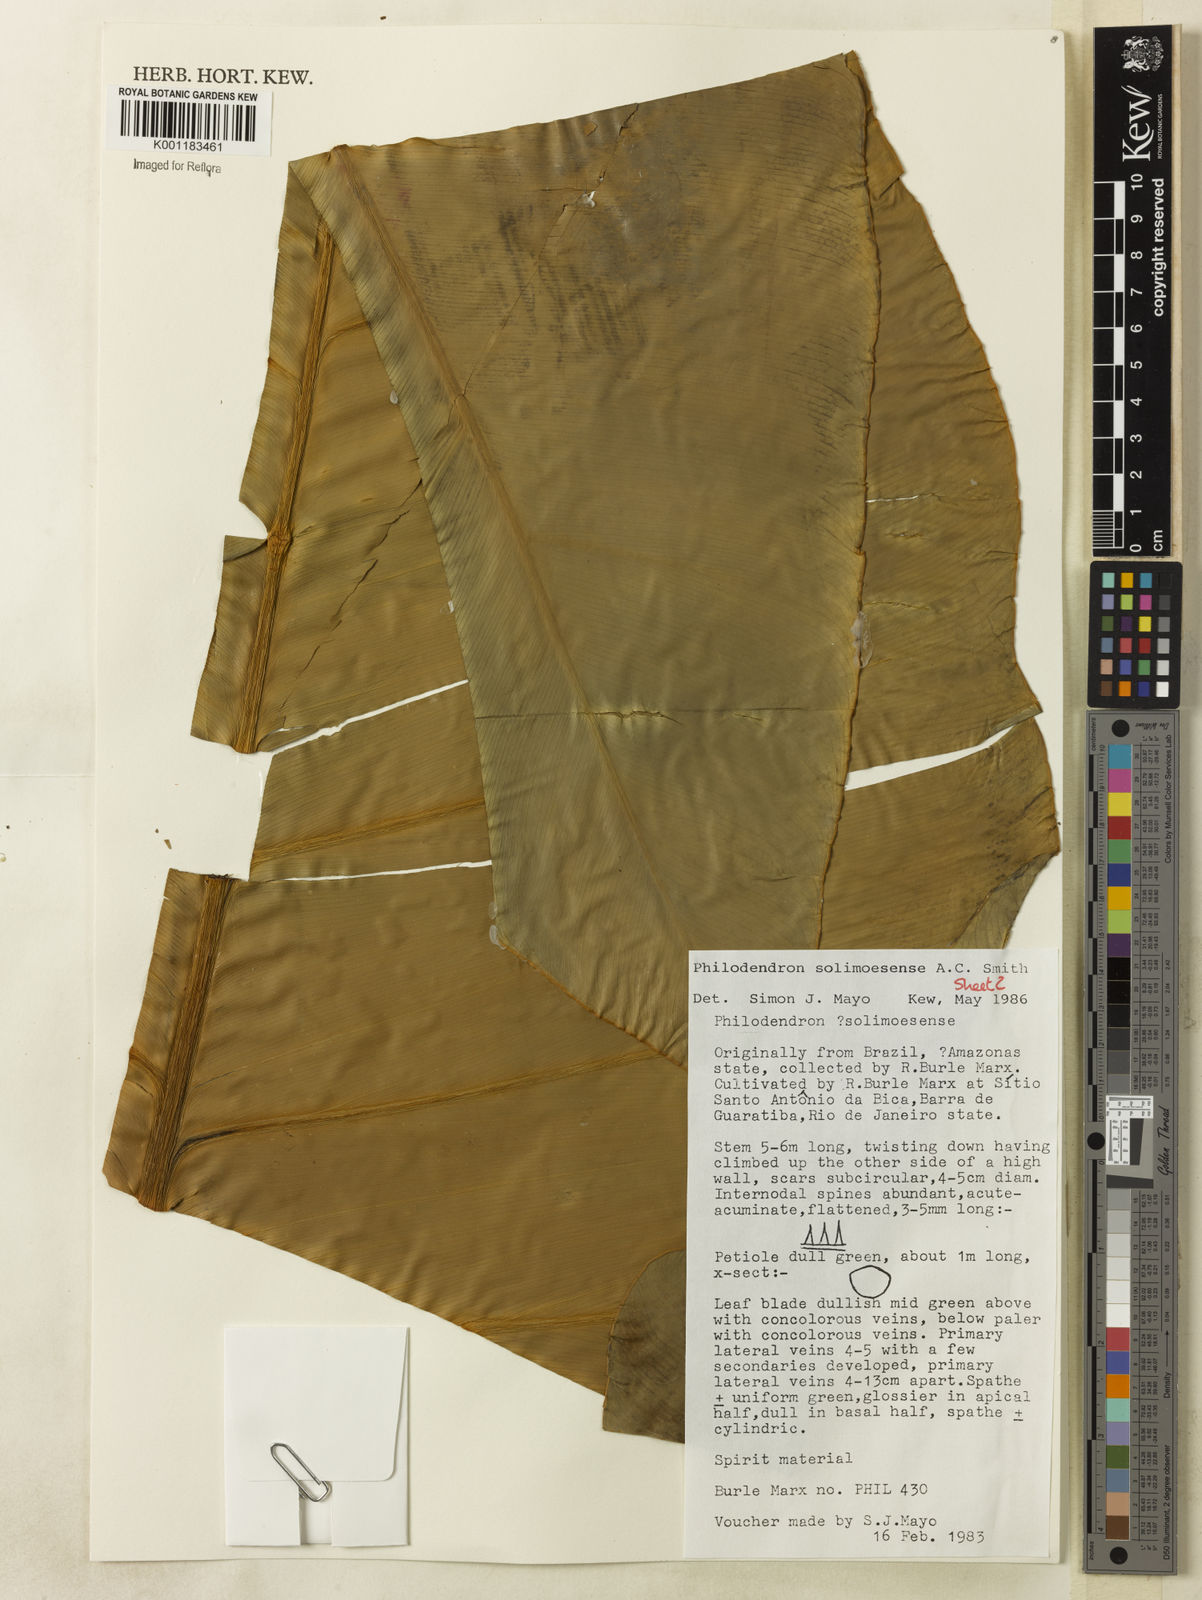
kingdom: Plantae
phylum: Tracheophyta
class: Liliopsida
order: Alismatales
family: Araceae
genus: Thaumatophyllum
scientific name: Thaumatophyllum solimoesense
